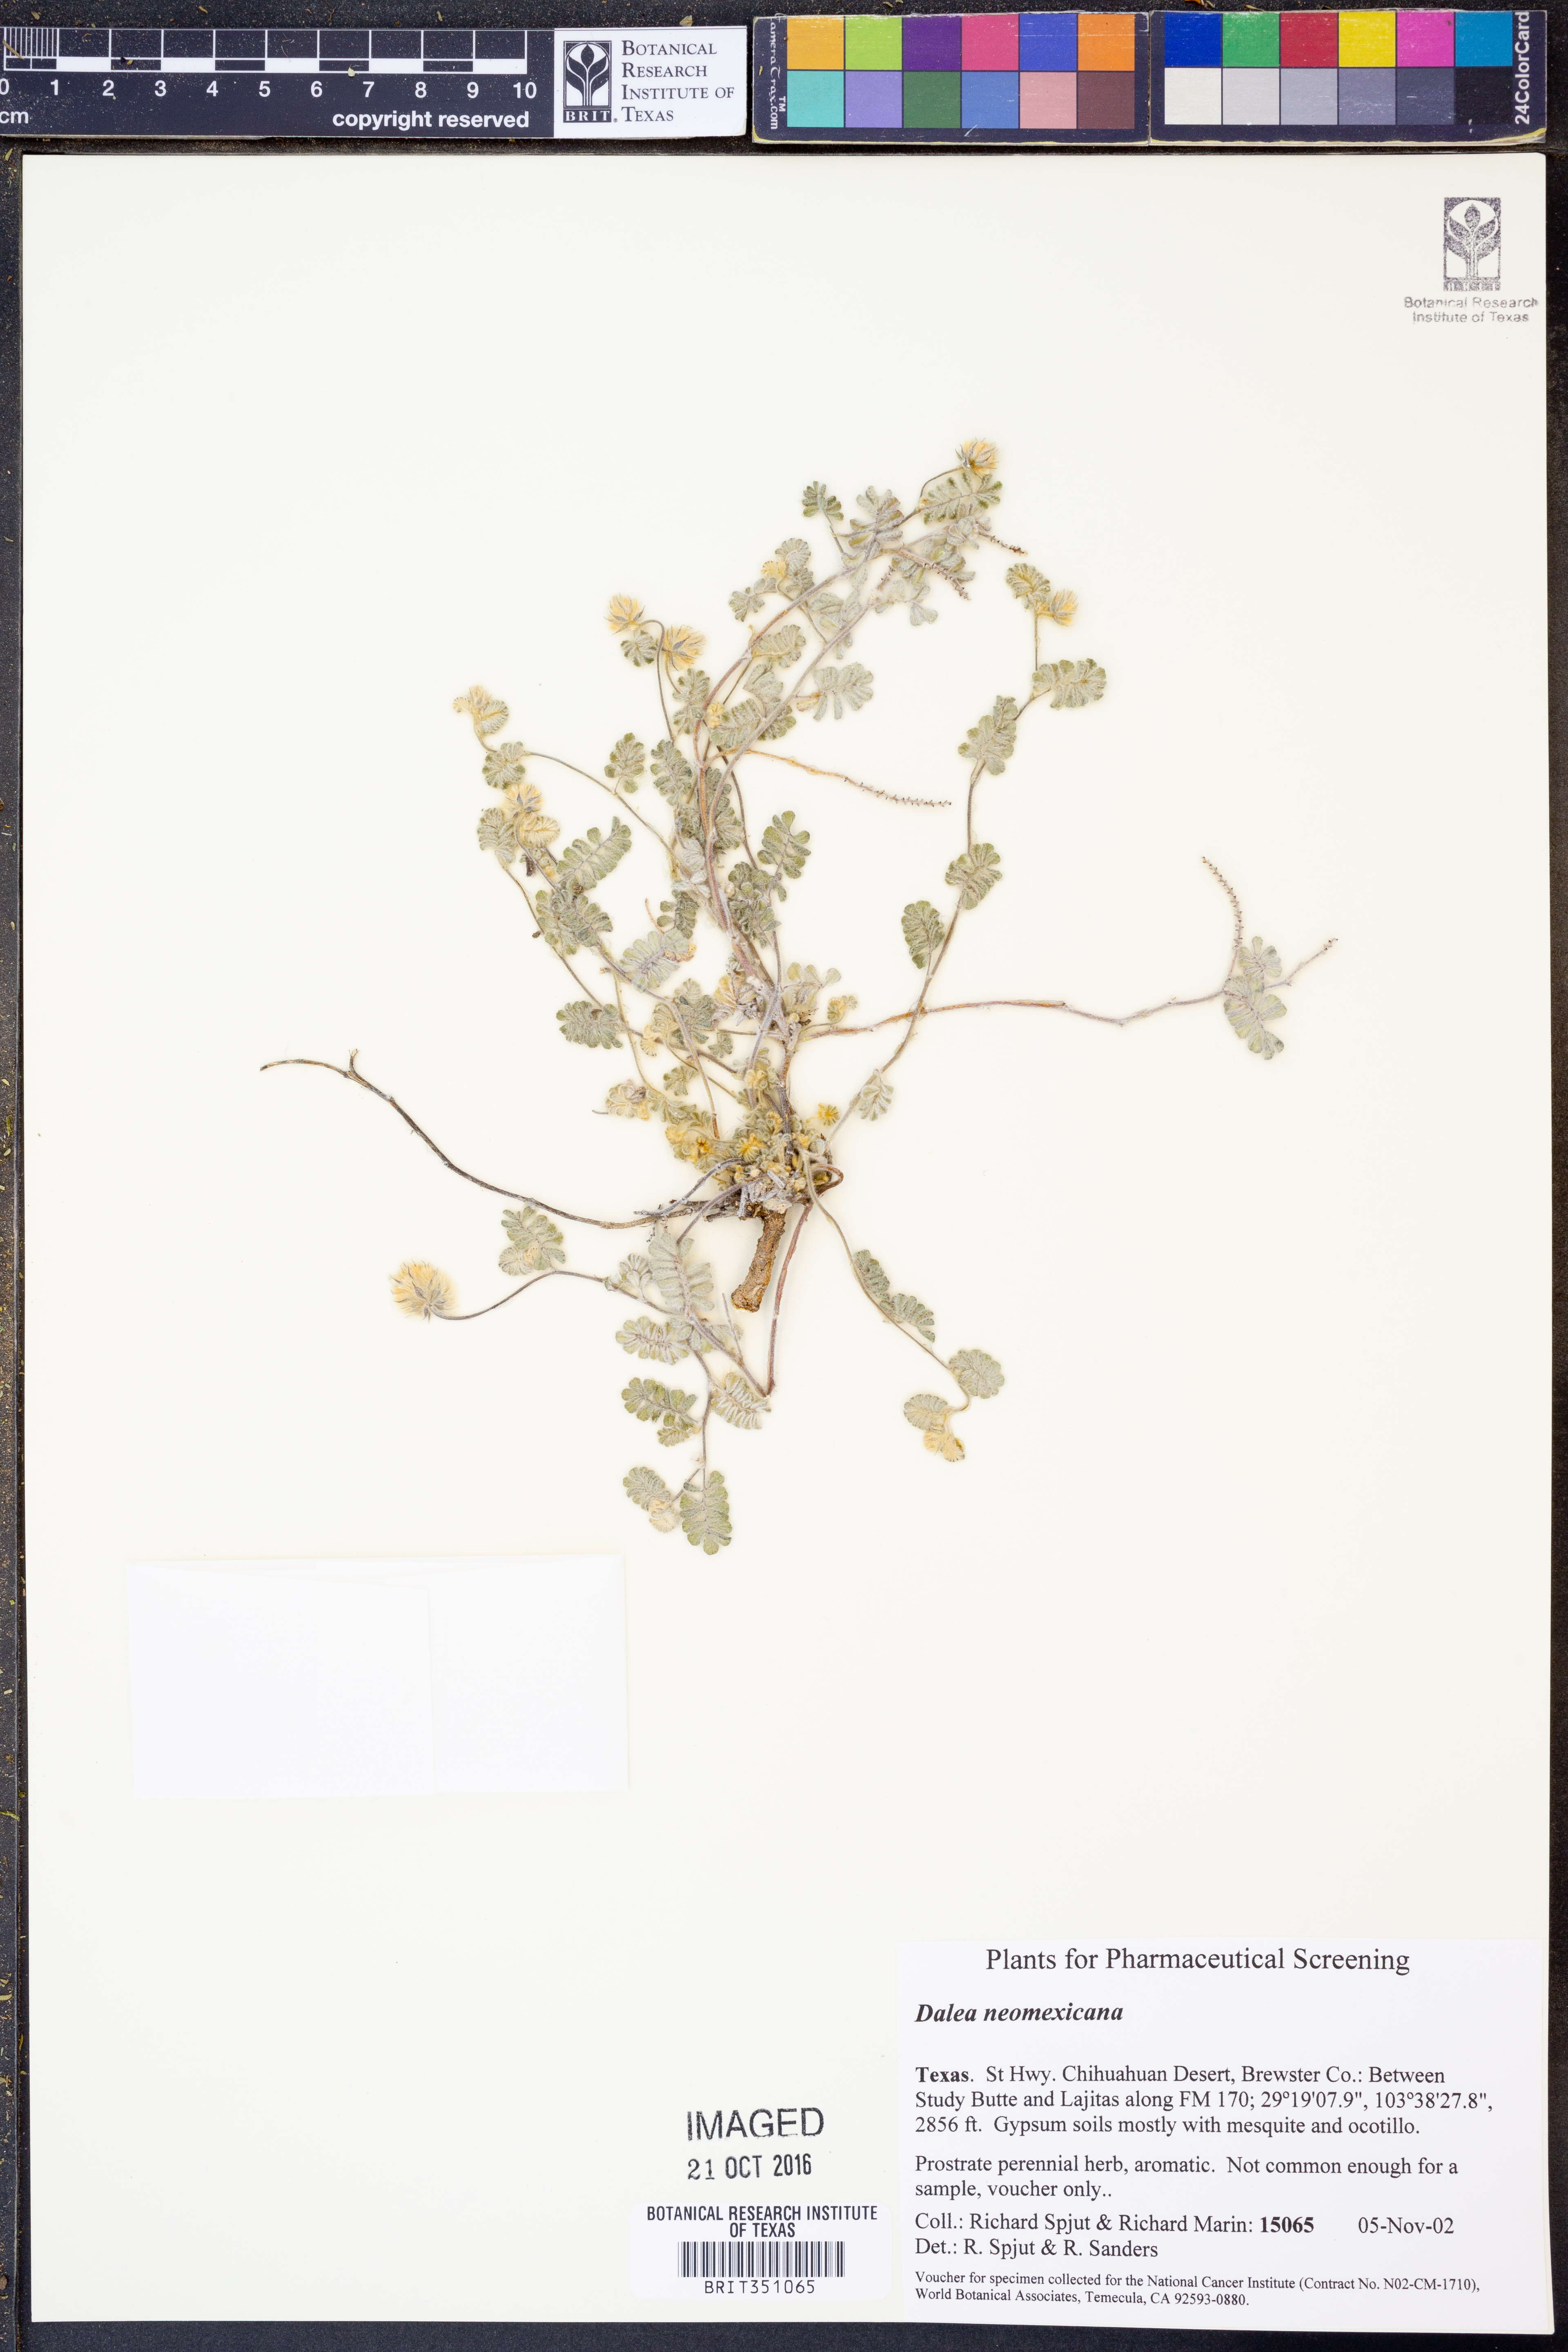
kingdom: Plantae
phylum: Tracheophyta
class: Magnoliopsida
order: Fabales
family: Fabaceae
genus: Dalea
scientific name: Dalea neomexicana
